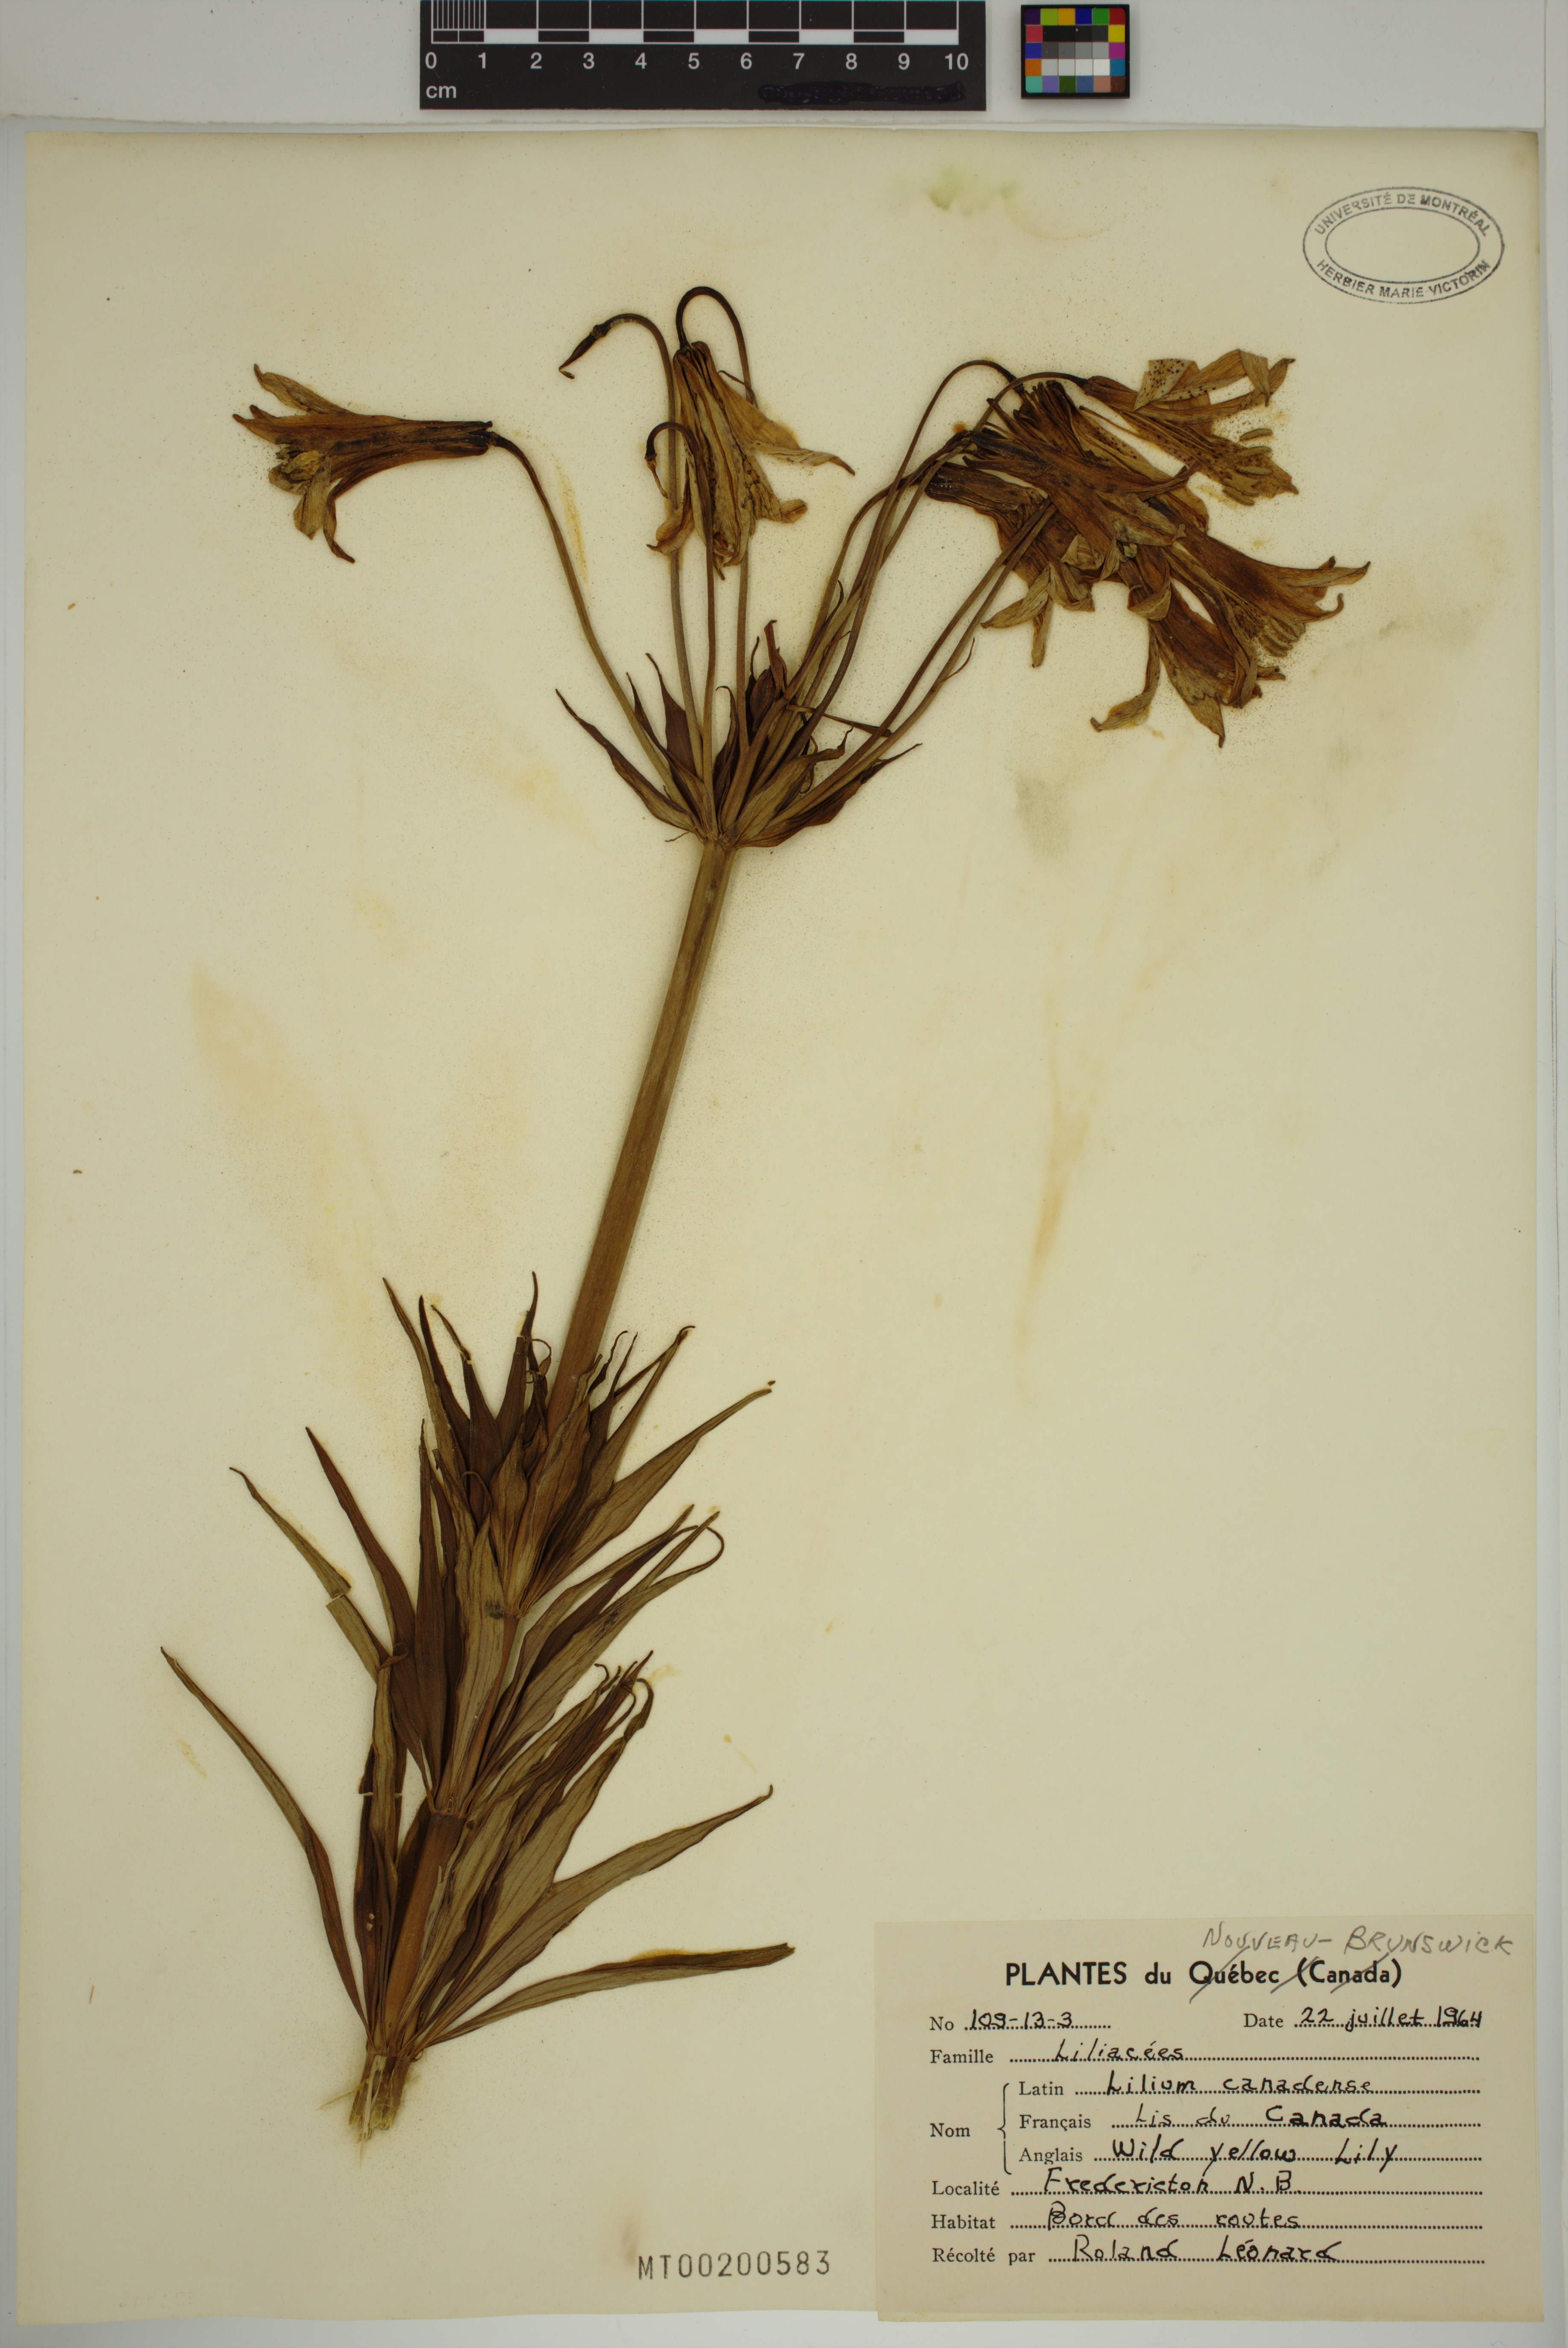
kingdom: Plantae
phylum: Tracheophyta
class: Liliopsida
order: Liliales
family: Liliaceae
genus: Lilium
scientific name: Lilium canadense
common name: Canada lily
